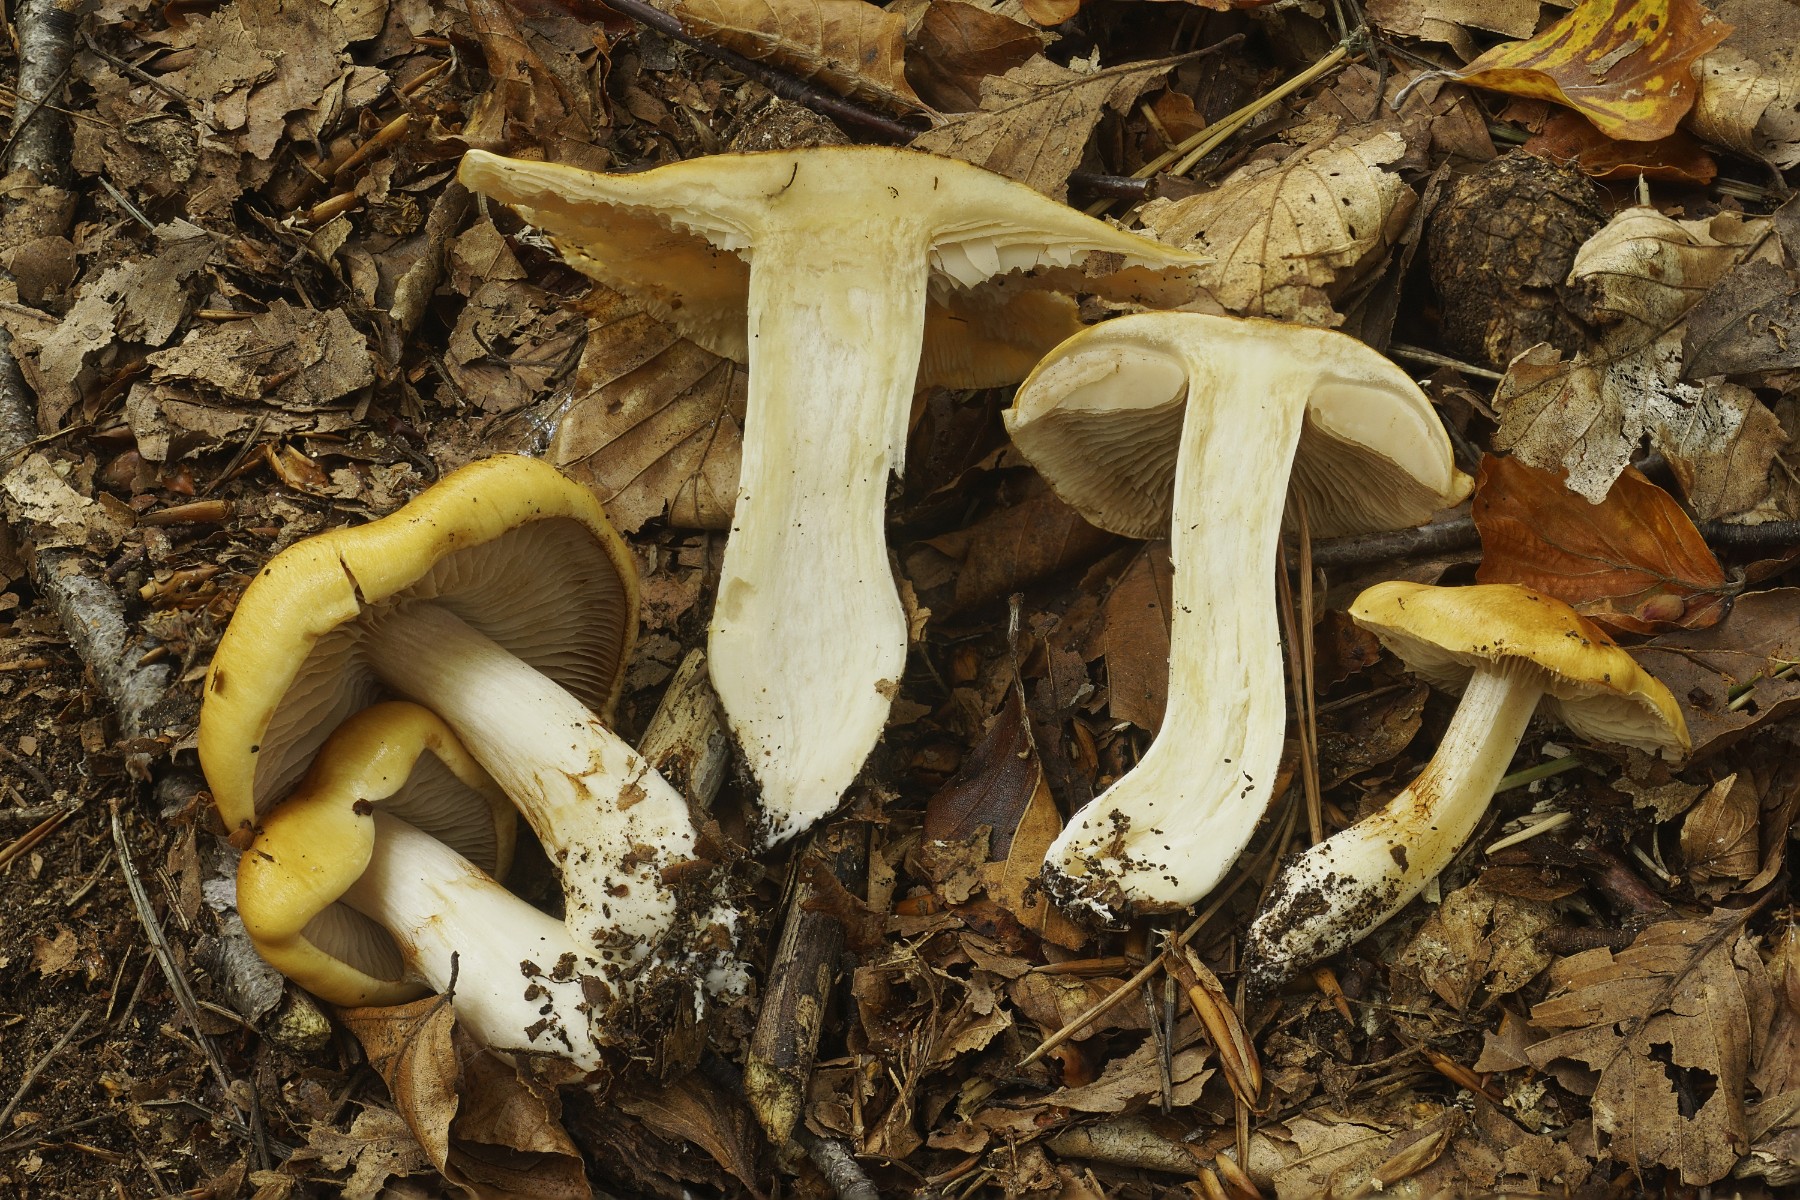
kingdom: Fungi
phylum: Basidiomycota
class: Agaricomycetes
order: Agaricales
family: Cortinariaceae
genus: Thaxterogaster
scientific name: Thaxterogaster emollitus
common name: besk slørhat
